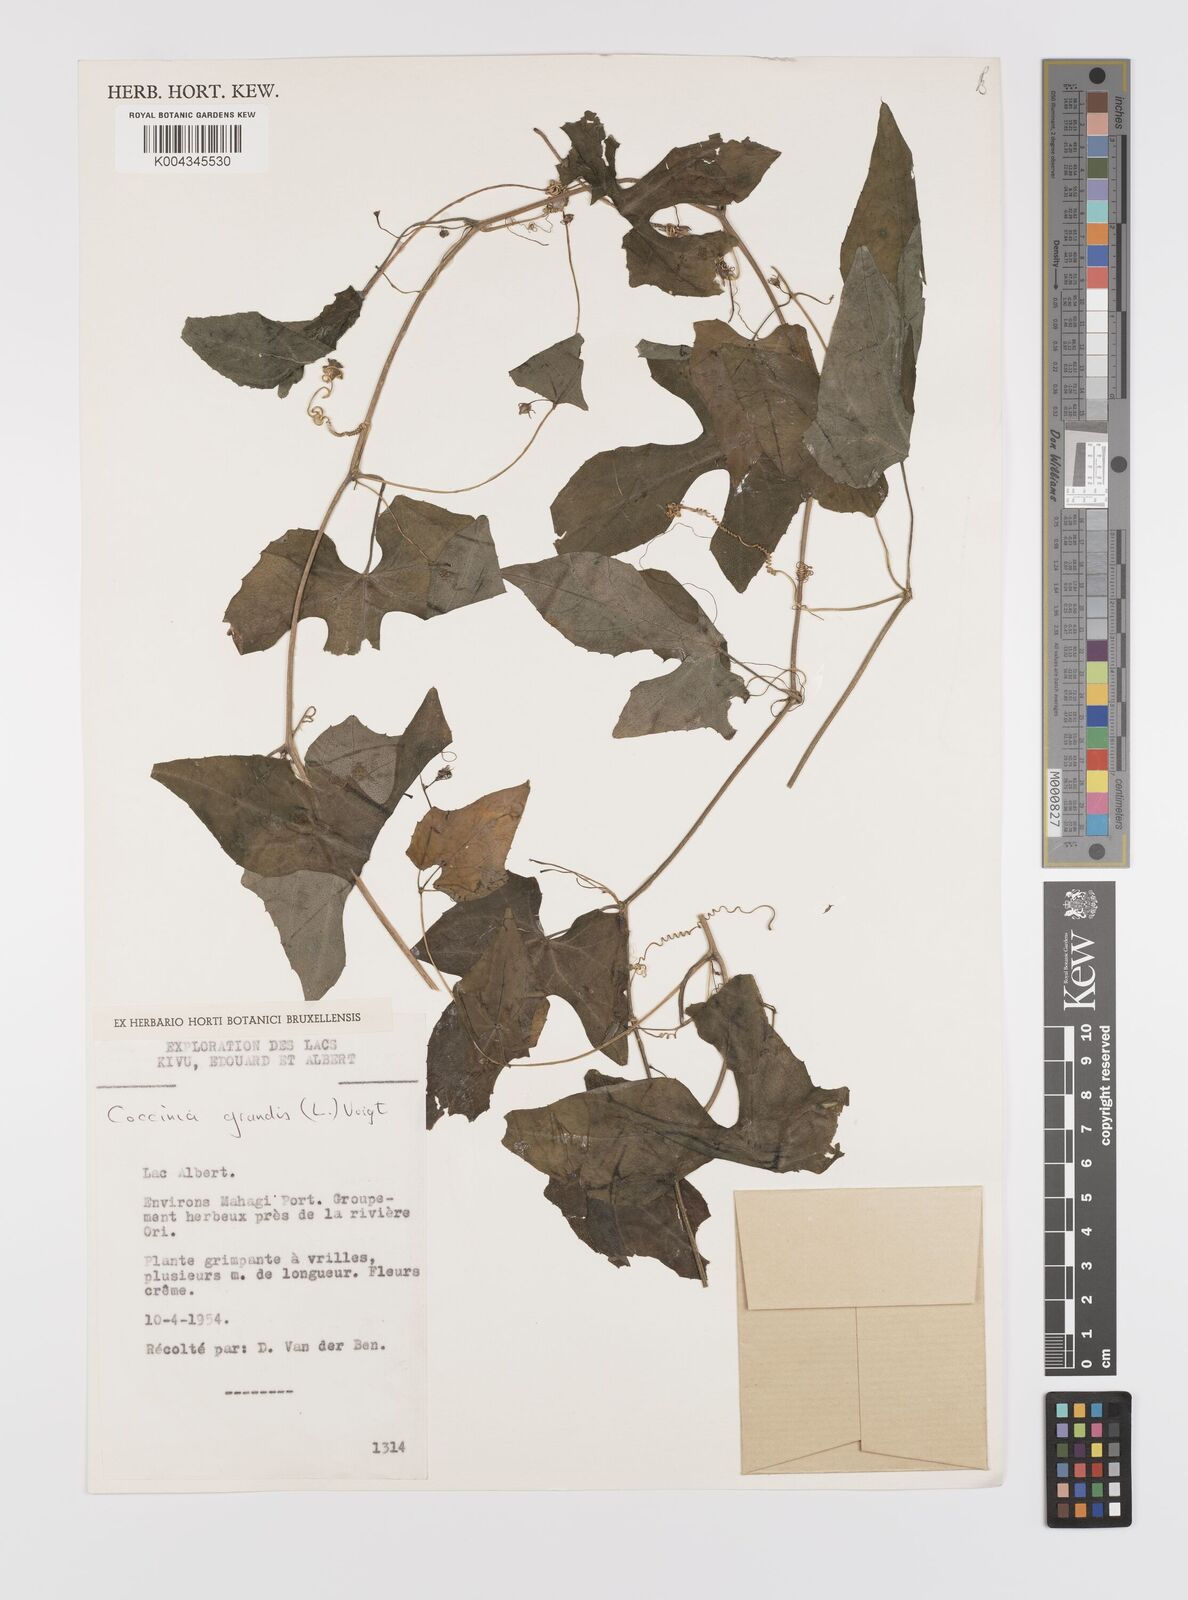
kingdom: Plantae
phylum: Tracheophyta
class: Magnoliopsida
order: Cucurbitales
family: Cucurbitaceae
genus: Coccinia
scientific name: Coccinia grandis
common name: Ivy gourd
